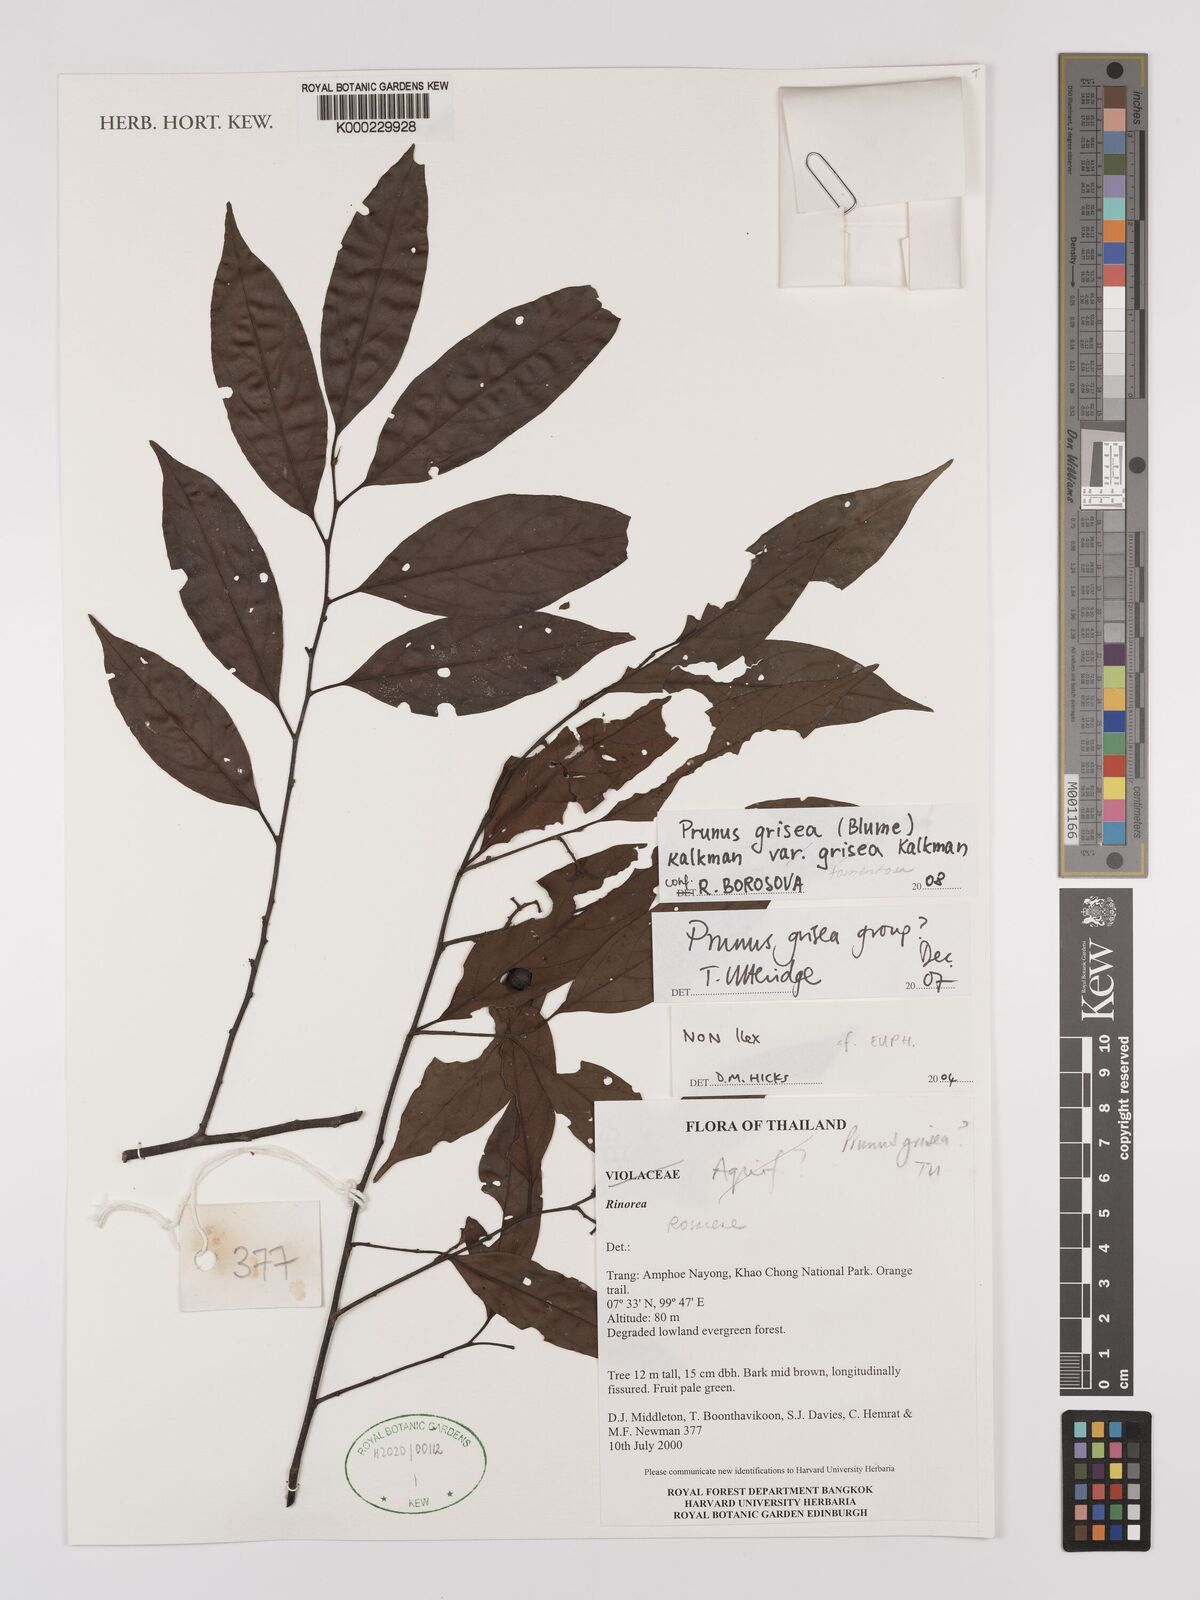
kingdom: Plantae
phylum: Tracheophyta
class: Magnoliopsida
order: Rosales
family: Rosaceae
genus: Prunus
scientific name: Prunus grisea
